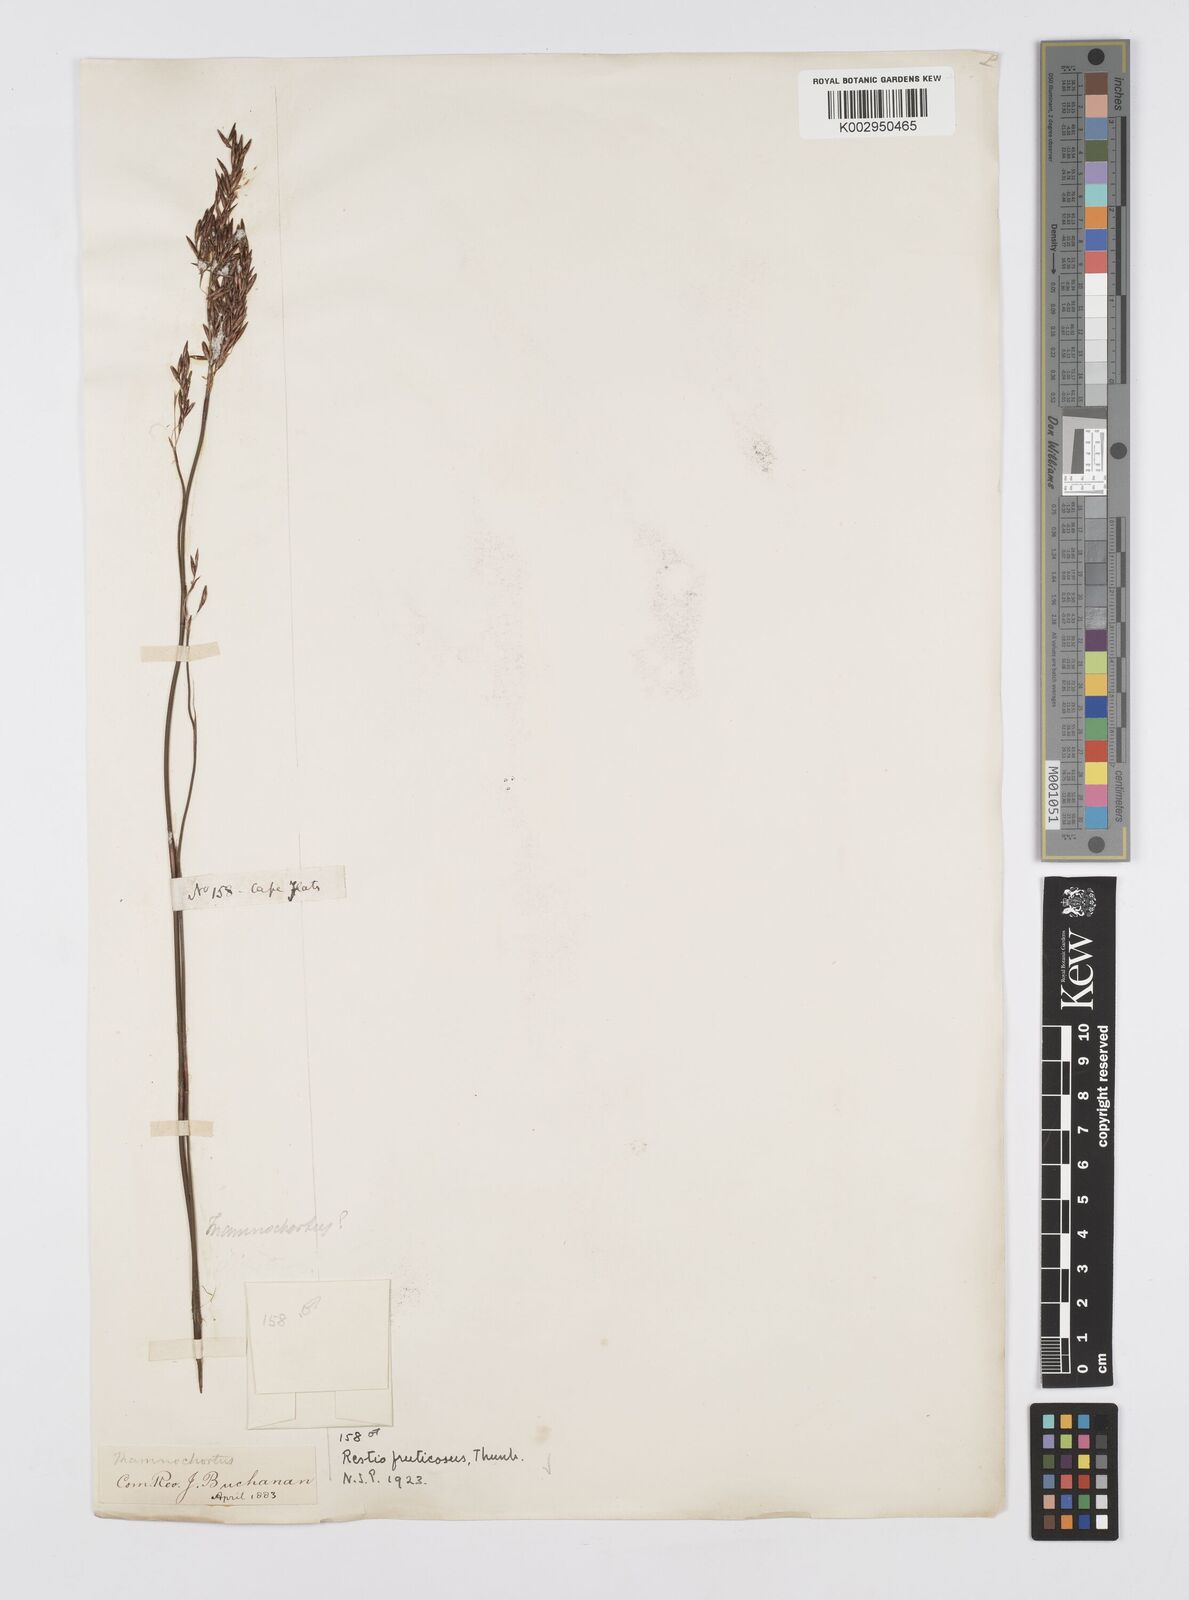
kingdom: Plantae
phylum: Tracheophyta
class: Liliopsida
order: Poales
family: Restionaceae
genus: Rhodocoma
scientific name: Rhodocoma fruticosa
